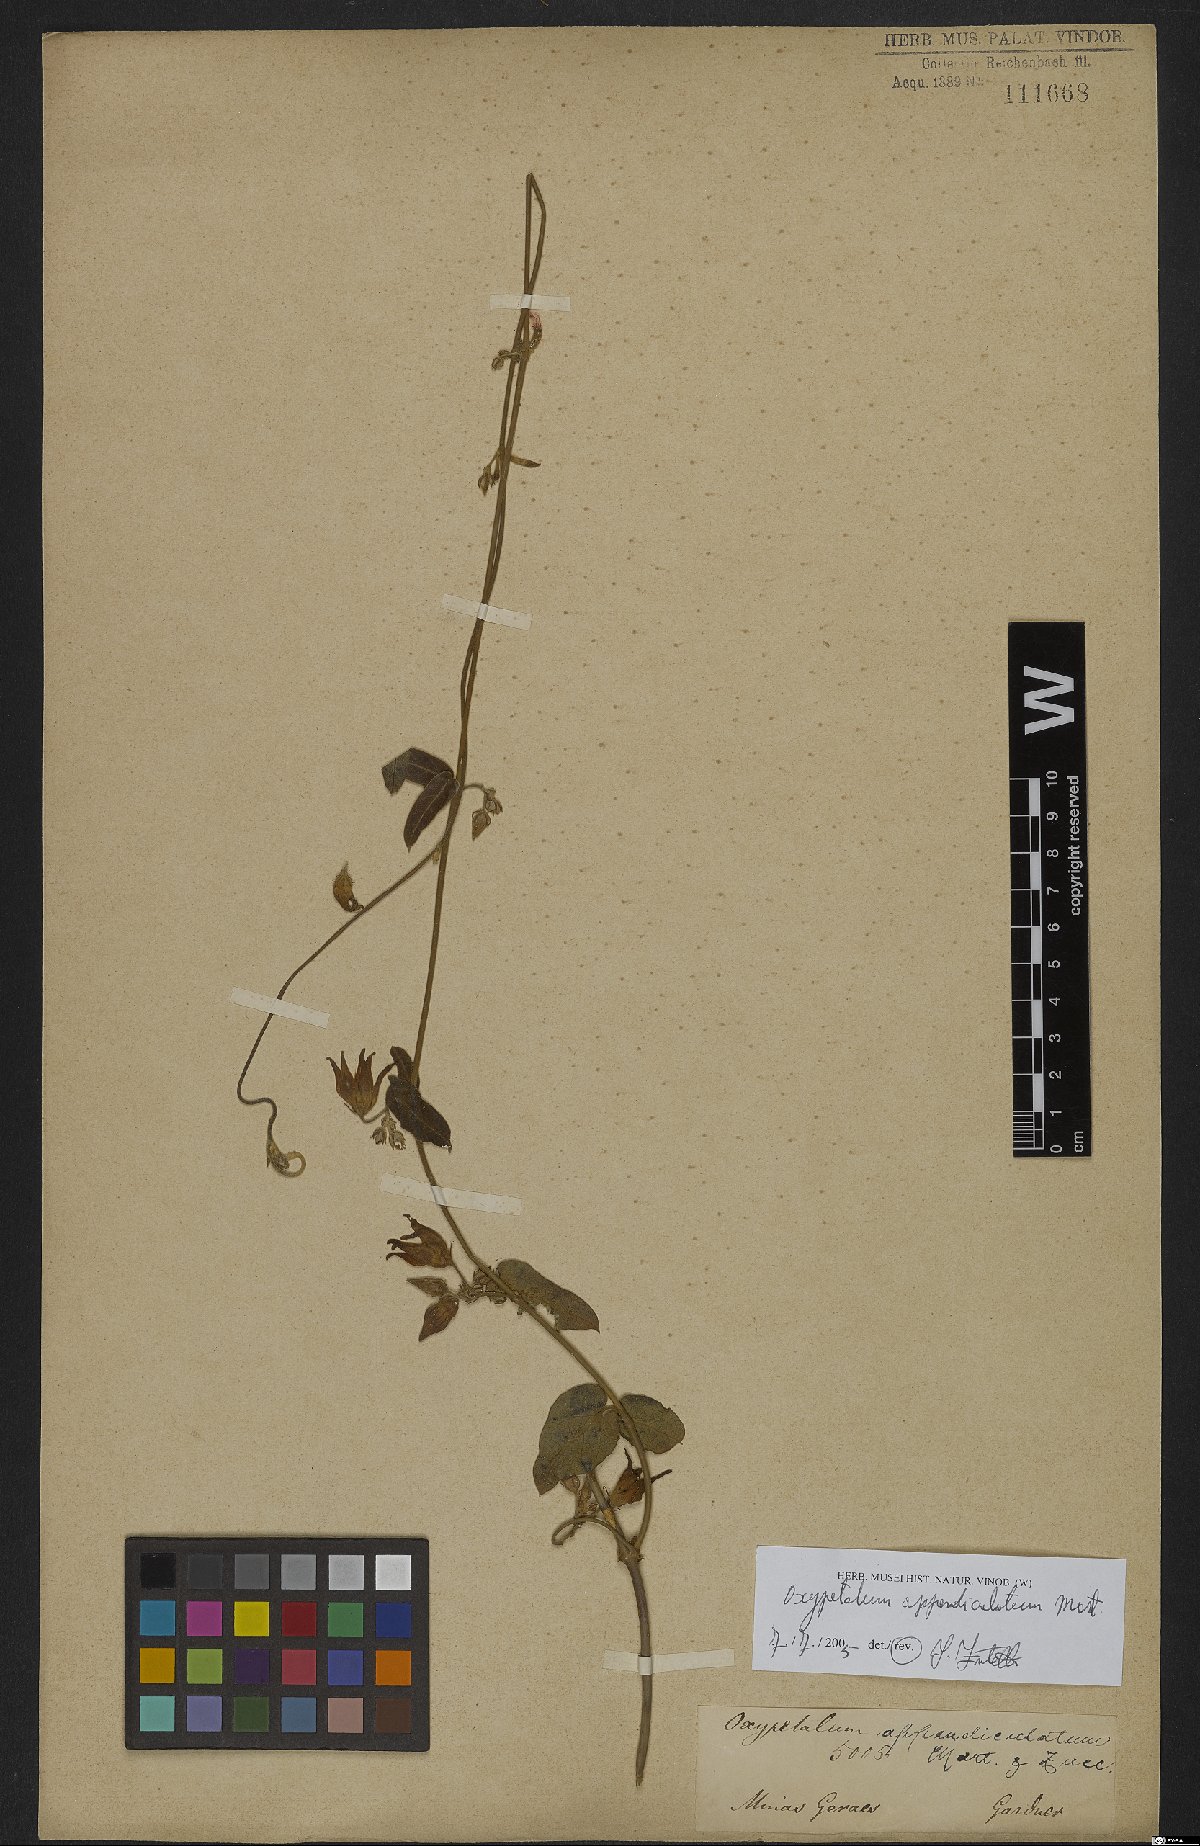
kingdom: Plantae
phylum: Tracheophyta
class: Magnoliopsida
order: Gentianales
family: Apocynaceae
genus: Oxypetalum
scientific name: Oxypetalum appendiculatum
